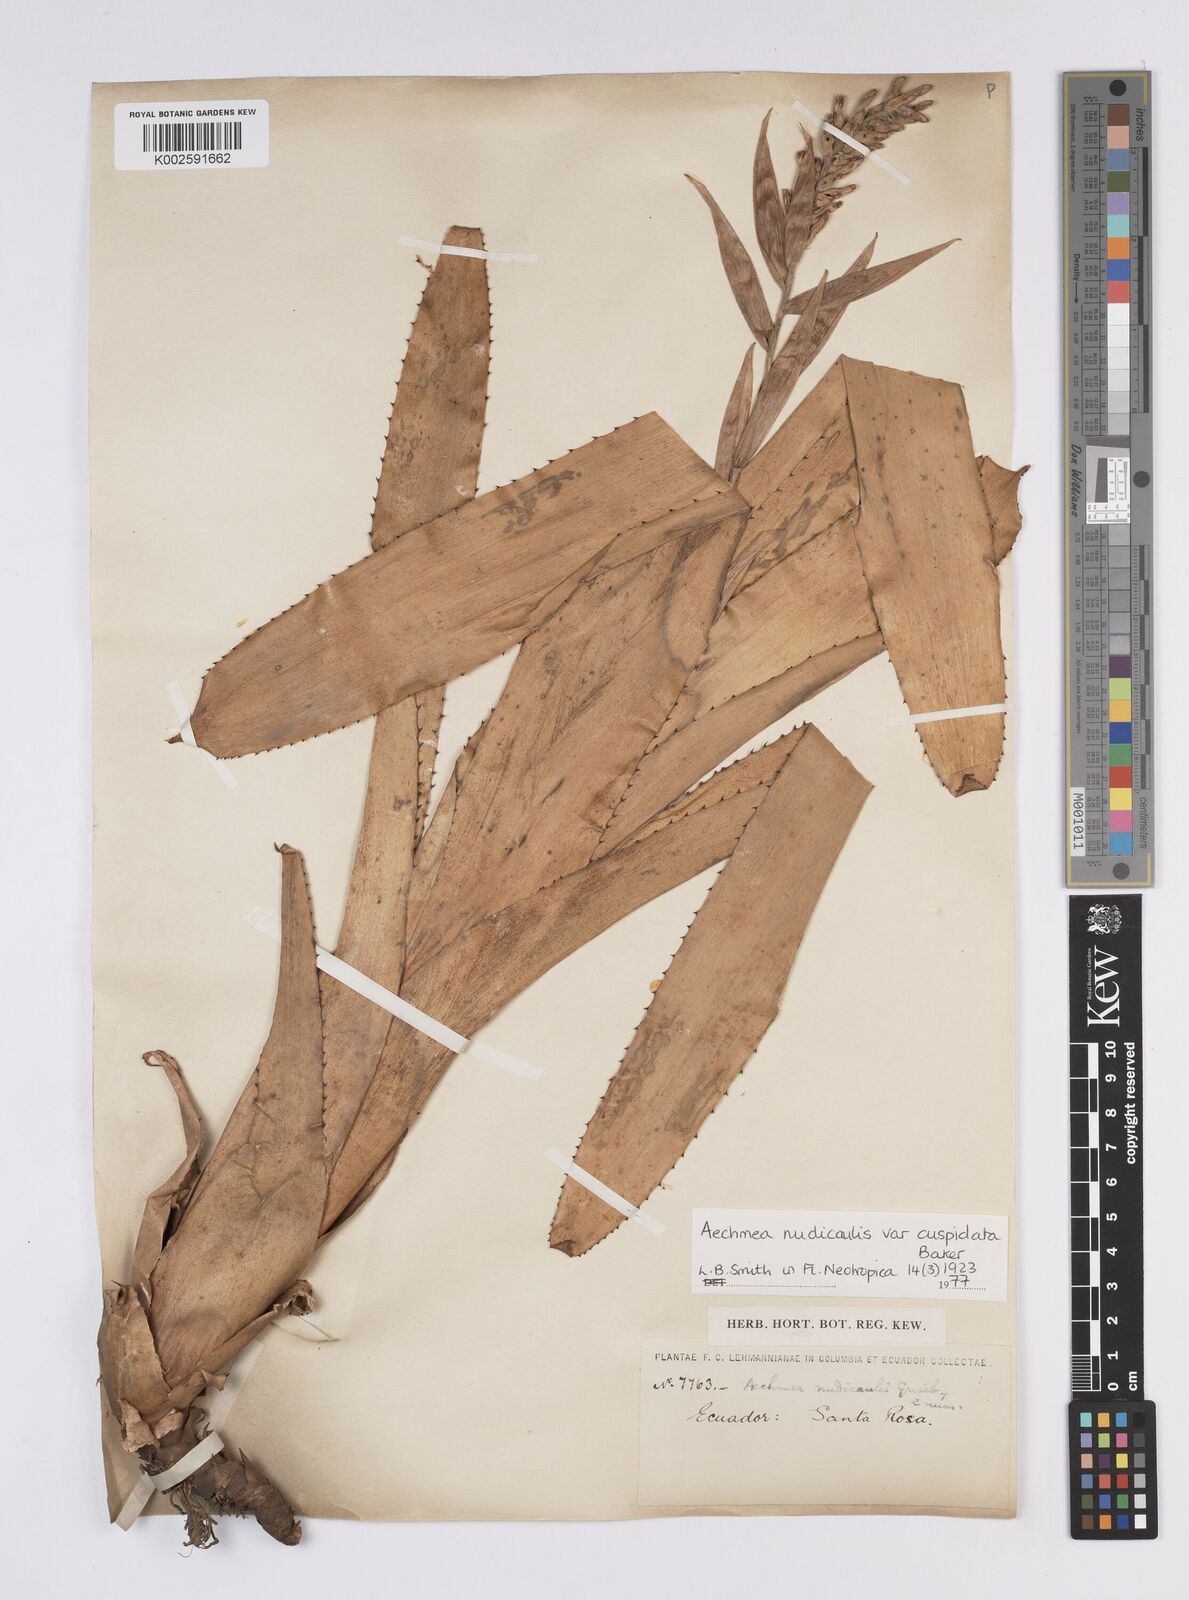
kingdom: Plantae
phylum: Tracheophyta
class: Liliopsida
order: Poales
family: Bromeliaceae
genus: Aechmea
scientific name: Aechmea nudicaulis
